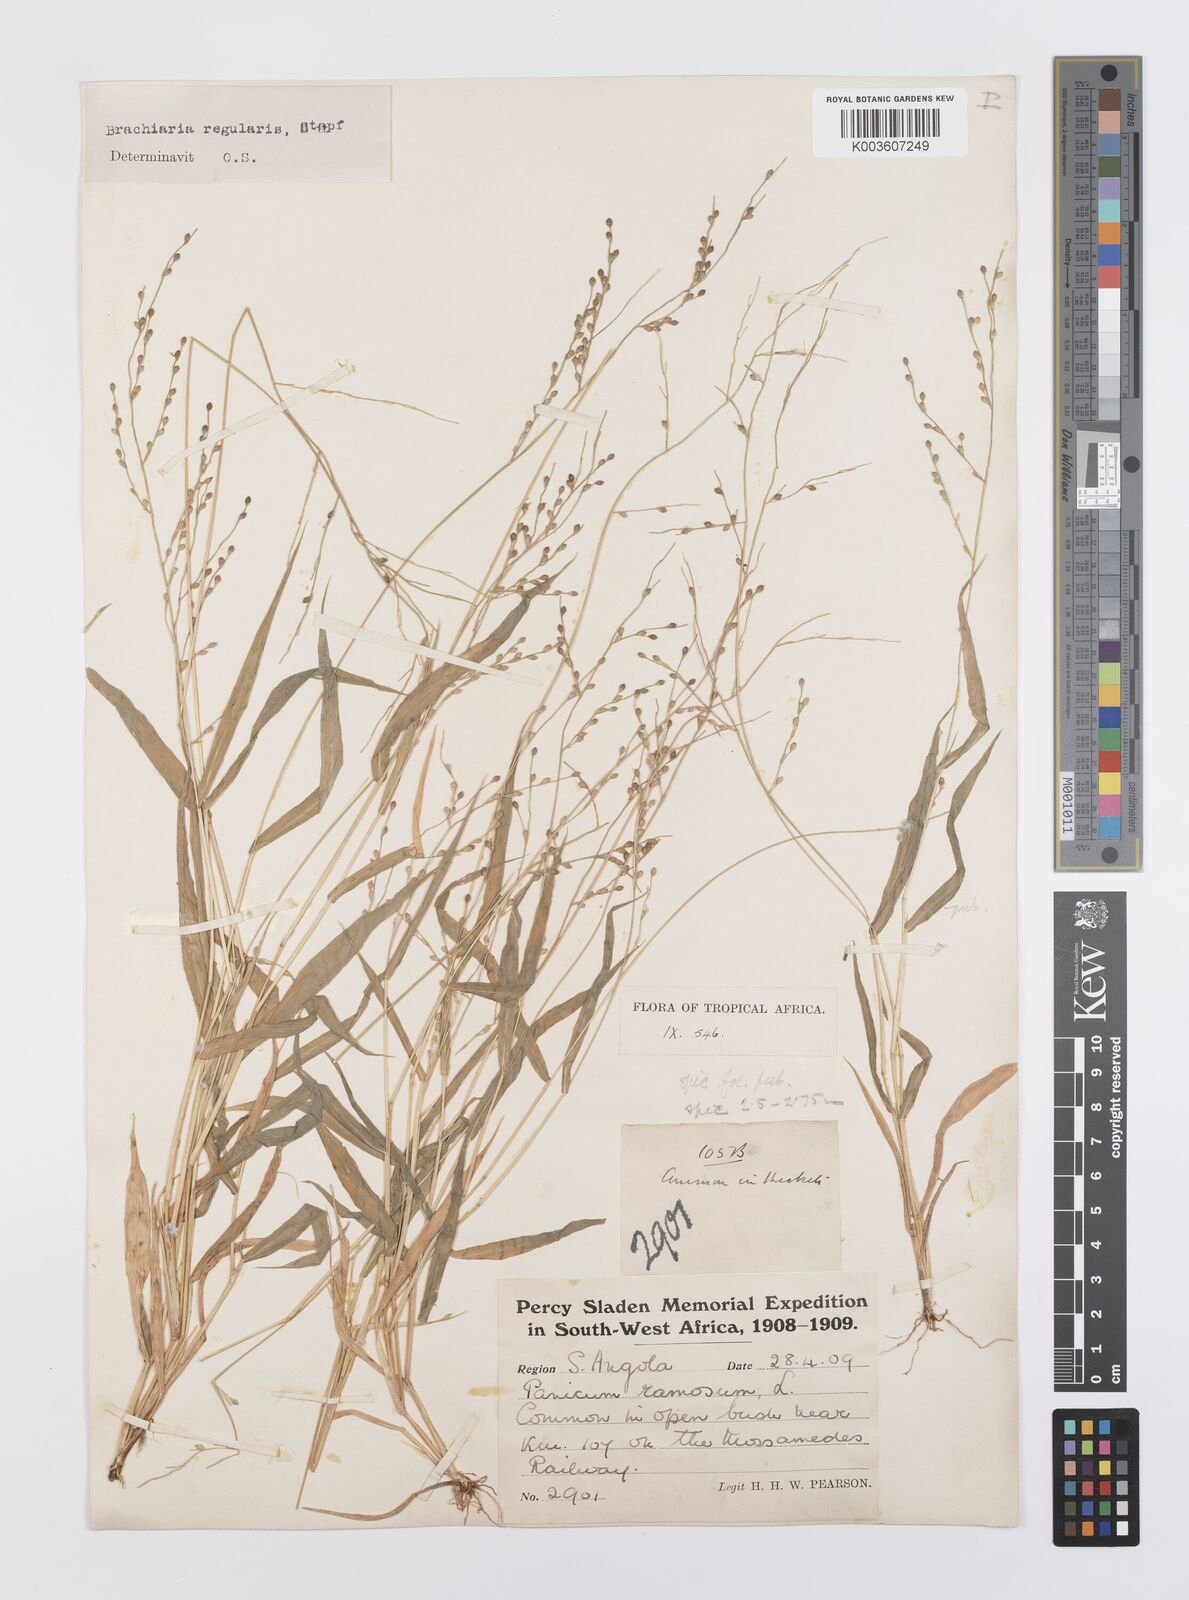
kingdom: Plantae
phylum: Tracheophyta
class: Liliopsida
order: Poales
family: Poaceae
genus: Urochloa
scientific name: Urochloa deflexa
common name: Guinea millet
